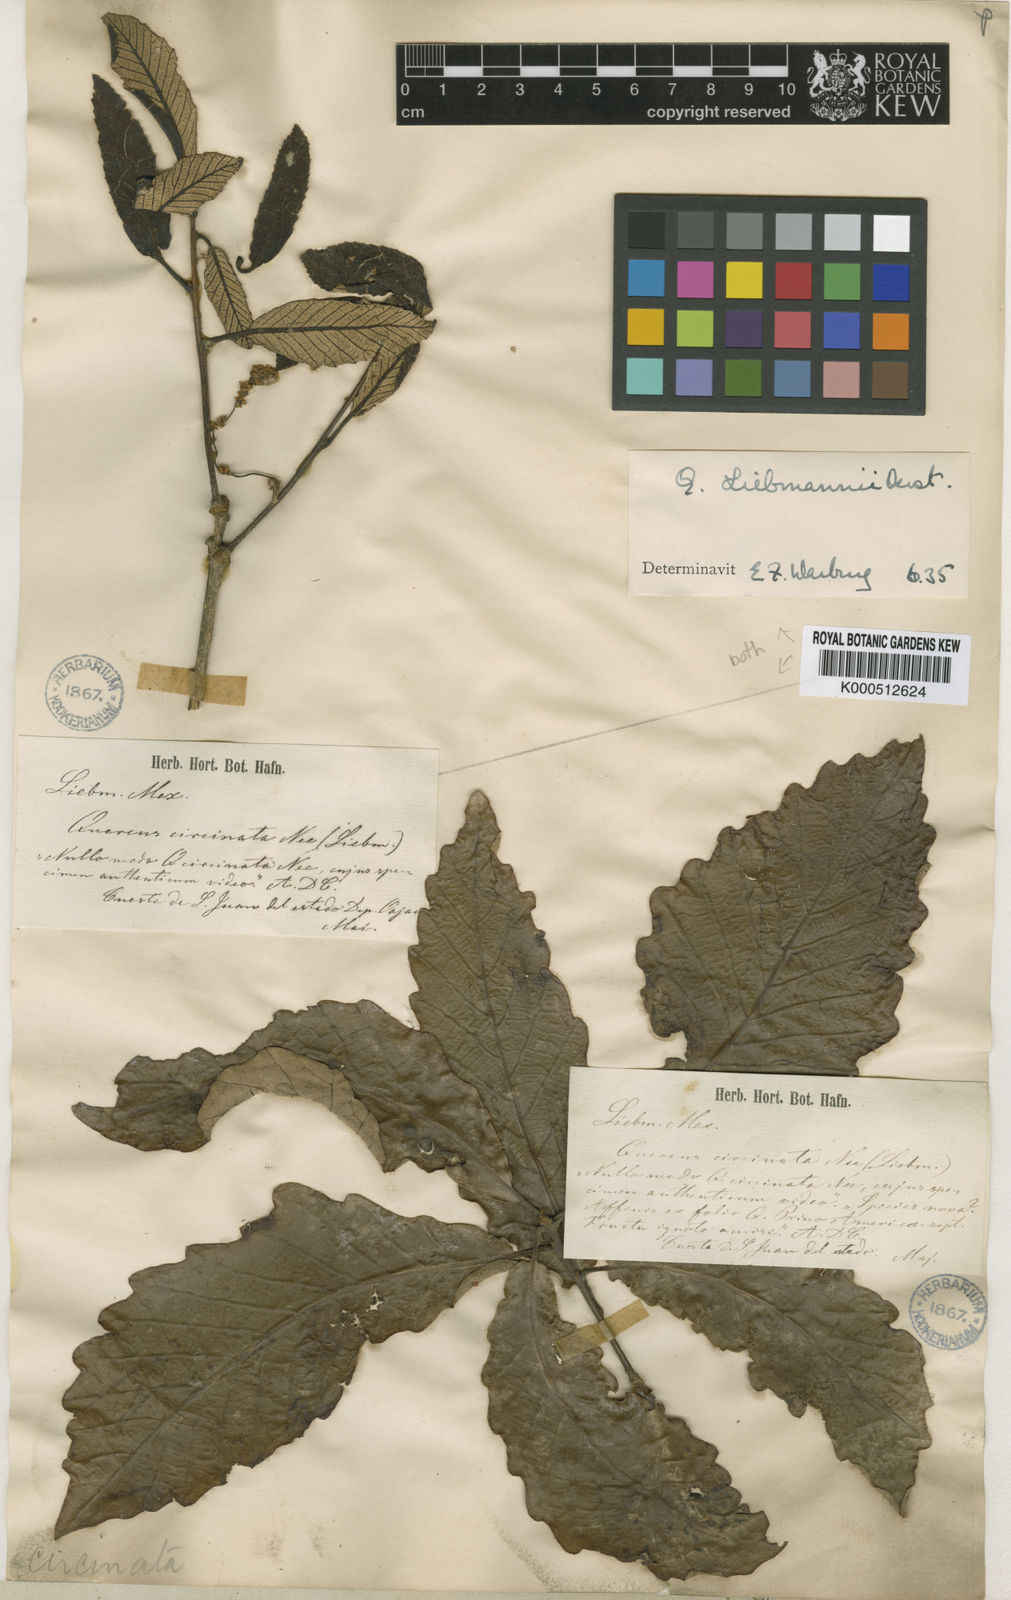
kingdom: Plantae
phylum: Tracheophyta
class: Magnoliopsida
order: Fagales
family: Fagaceae
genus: Quercus
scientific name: Quercus liebmannii
